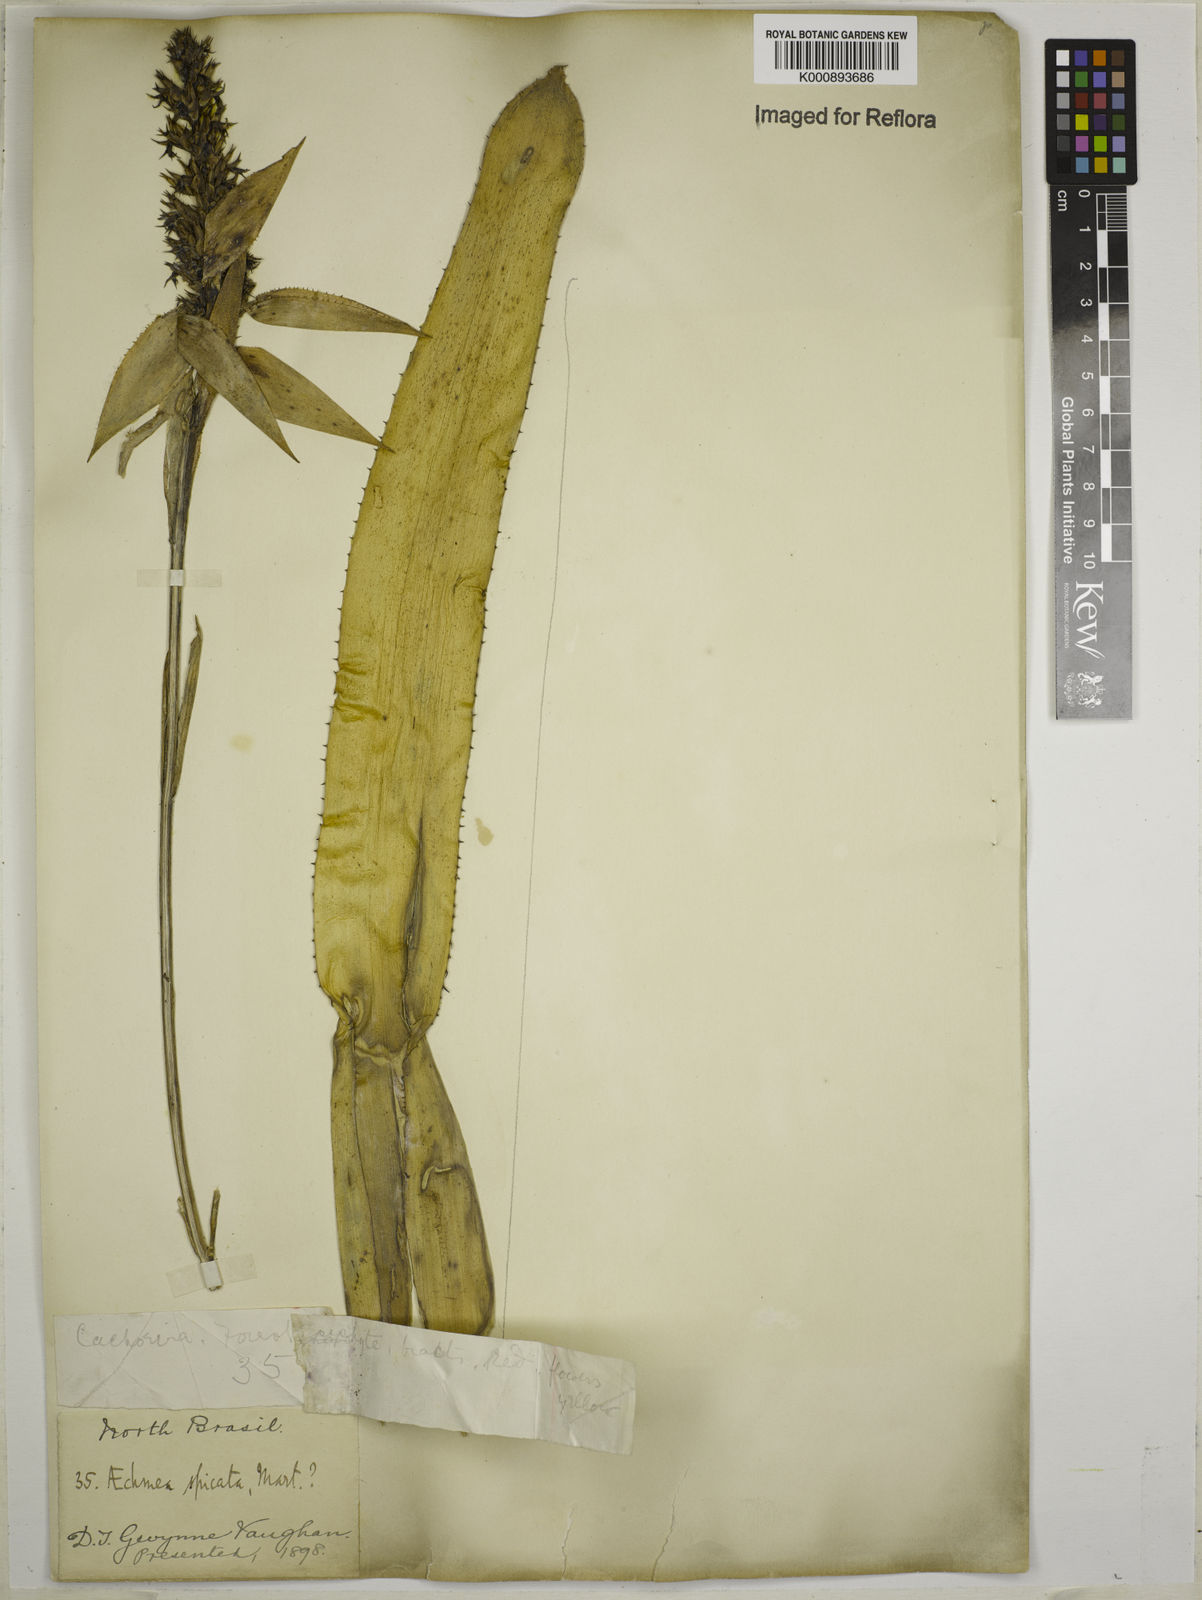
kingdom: Plantae
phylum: Tracheophyta
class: Liliopsida
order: Poales
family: Bromeliaceae
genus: Aechmea
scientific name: Aechmea mertensii
